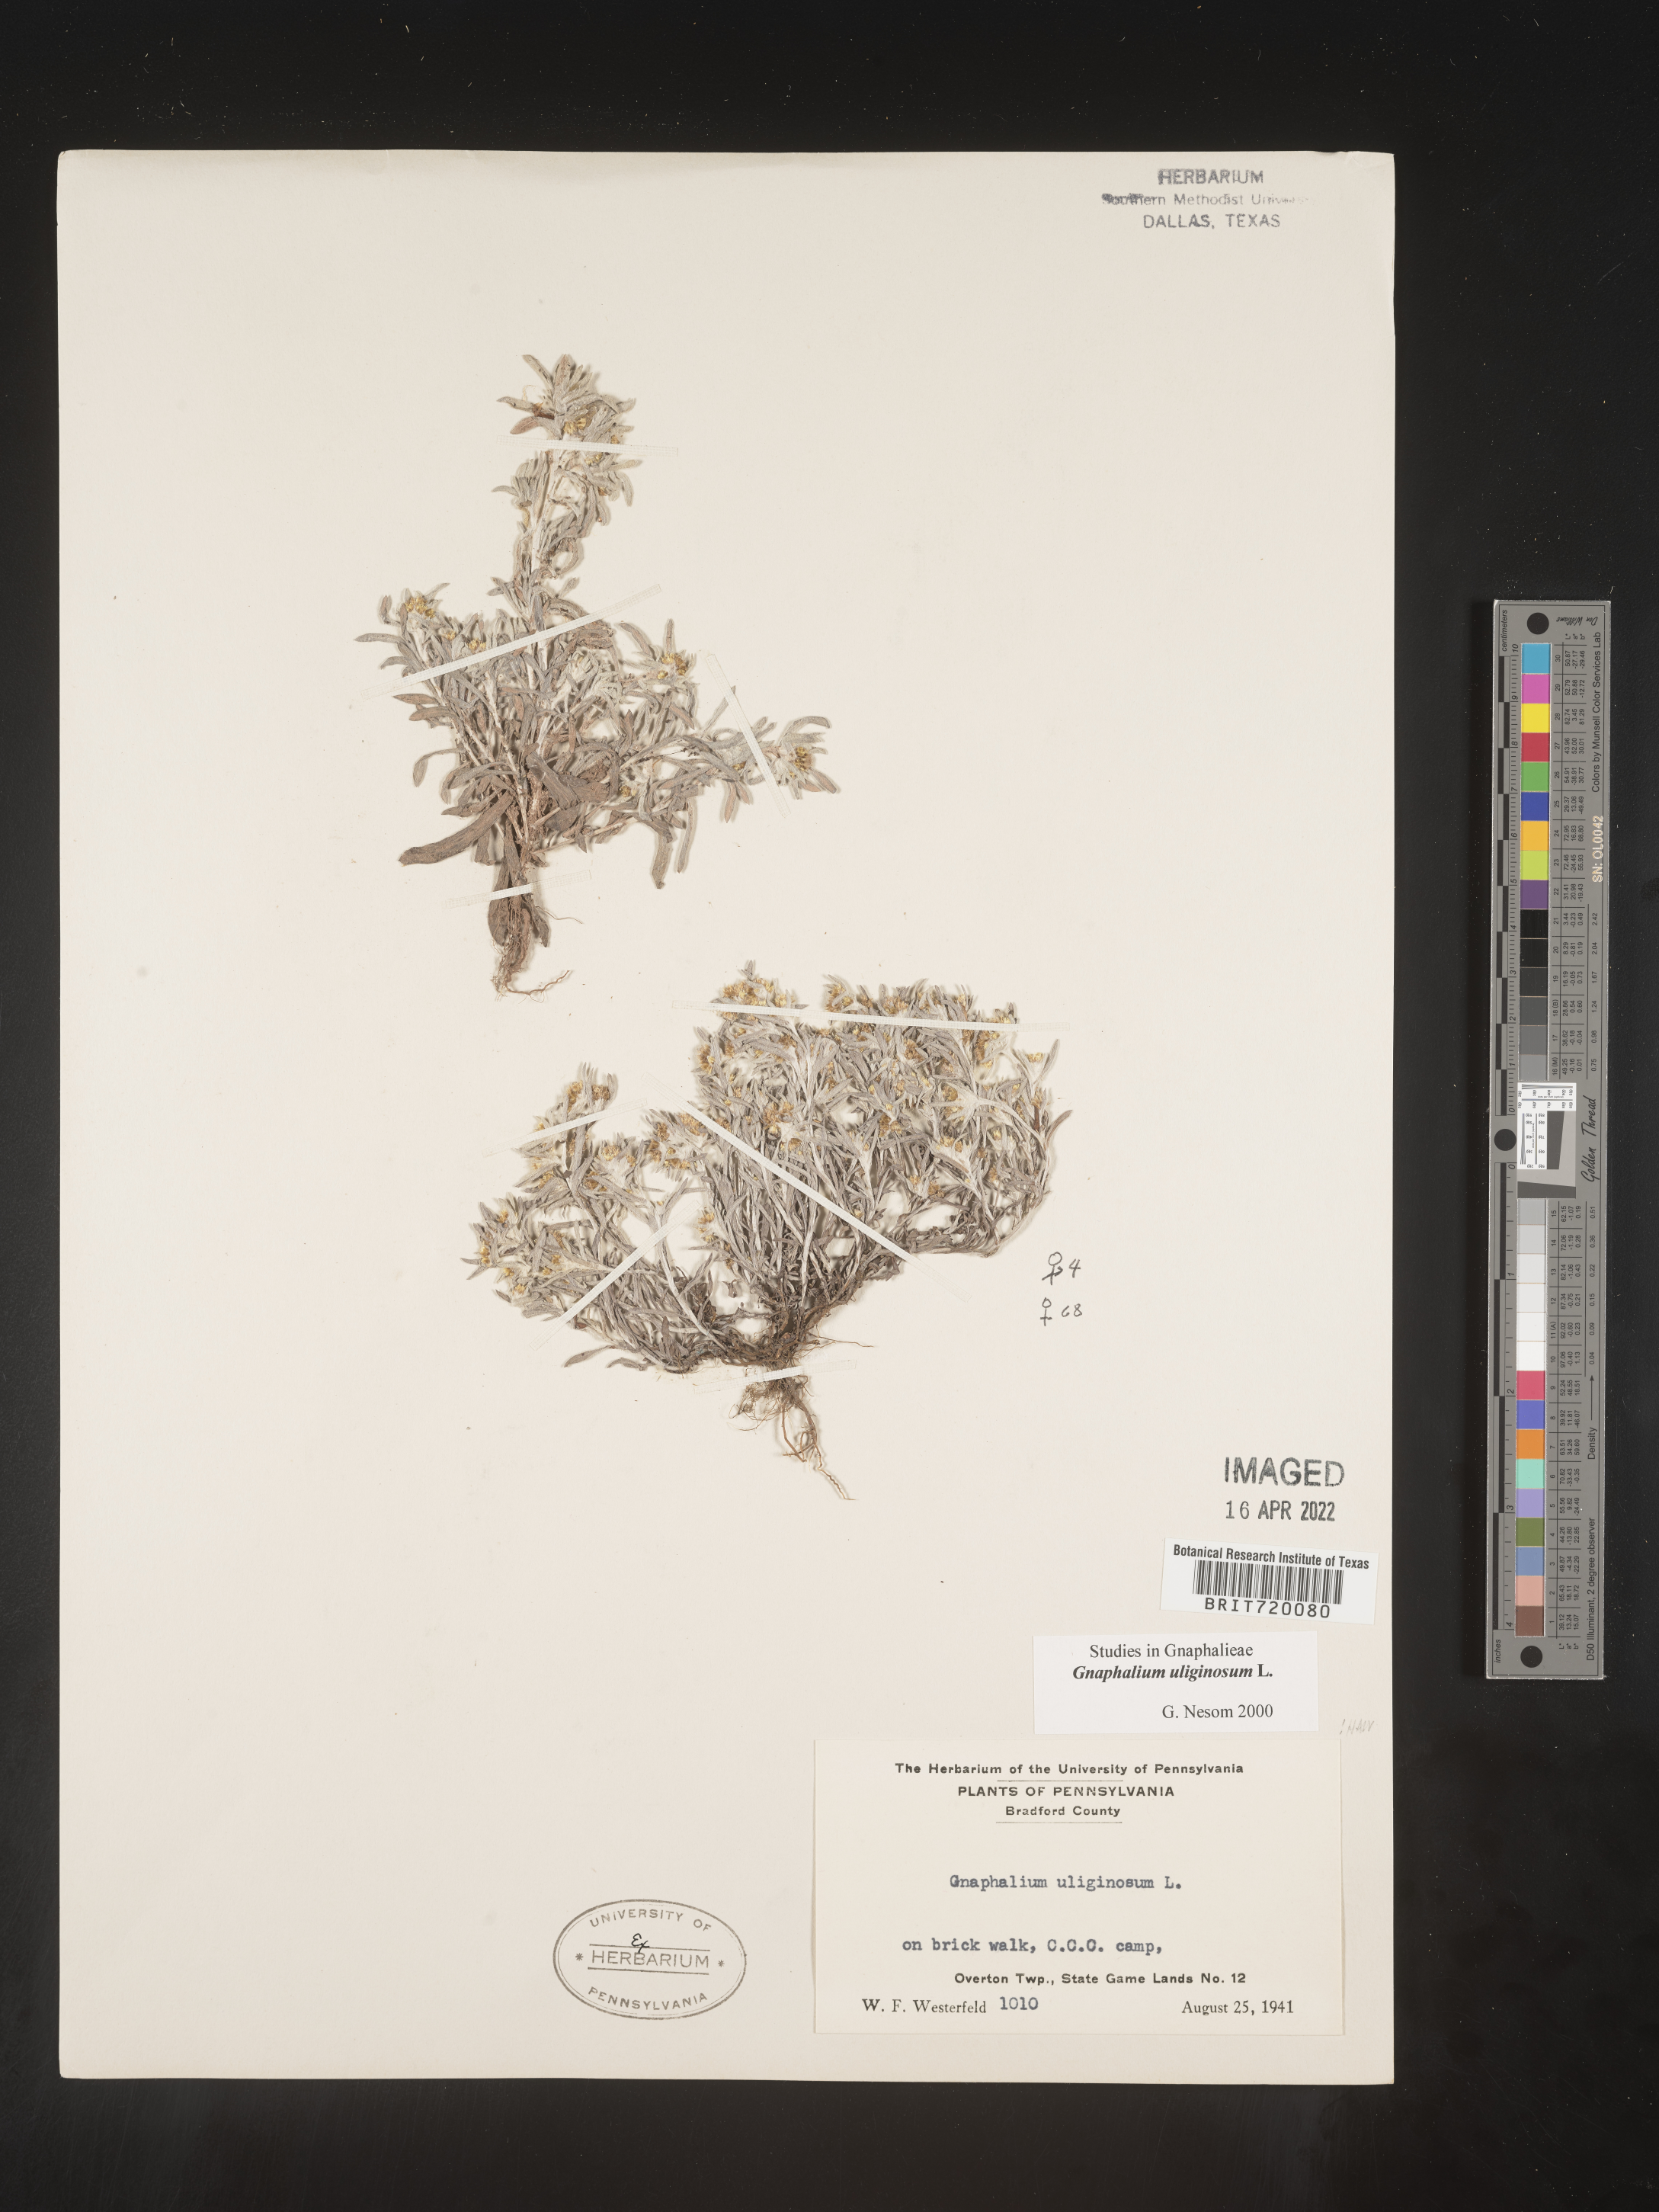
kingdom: Plantae
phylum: Tracheophyta
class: Magnoliopsida
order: Asterales
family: Asteraceae
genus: Gnaphalium
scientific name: Gnaphalium uliginosum
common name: Marsh cudweed
